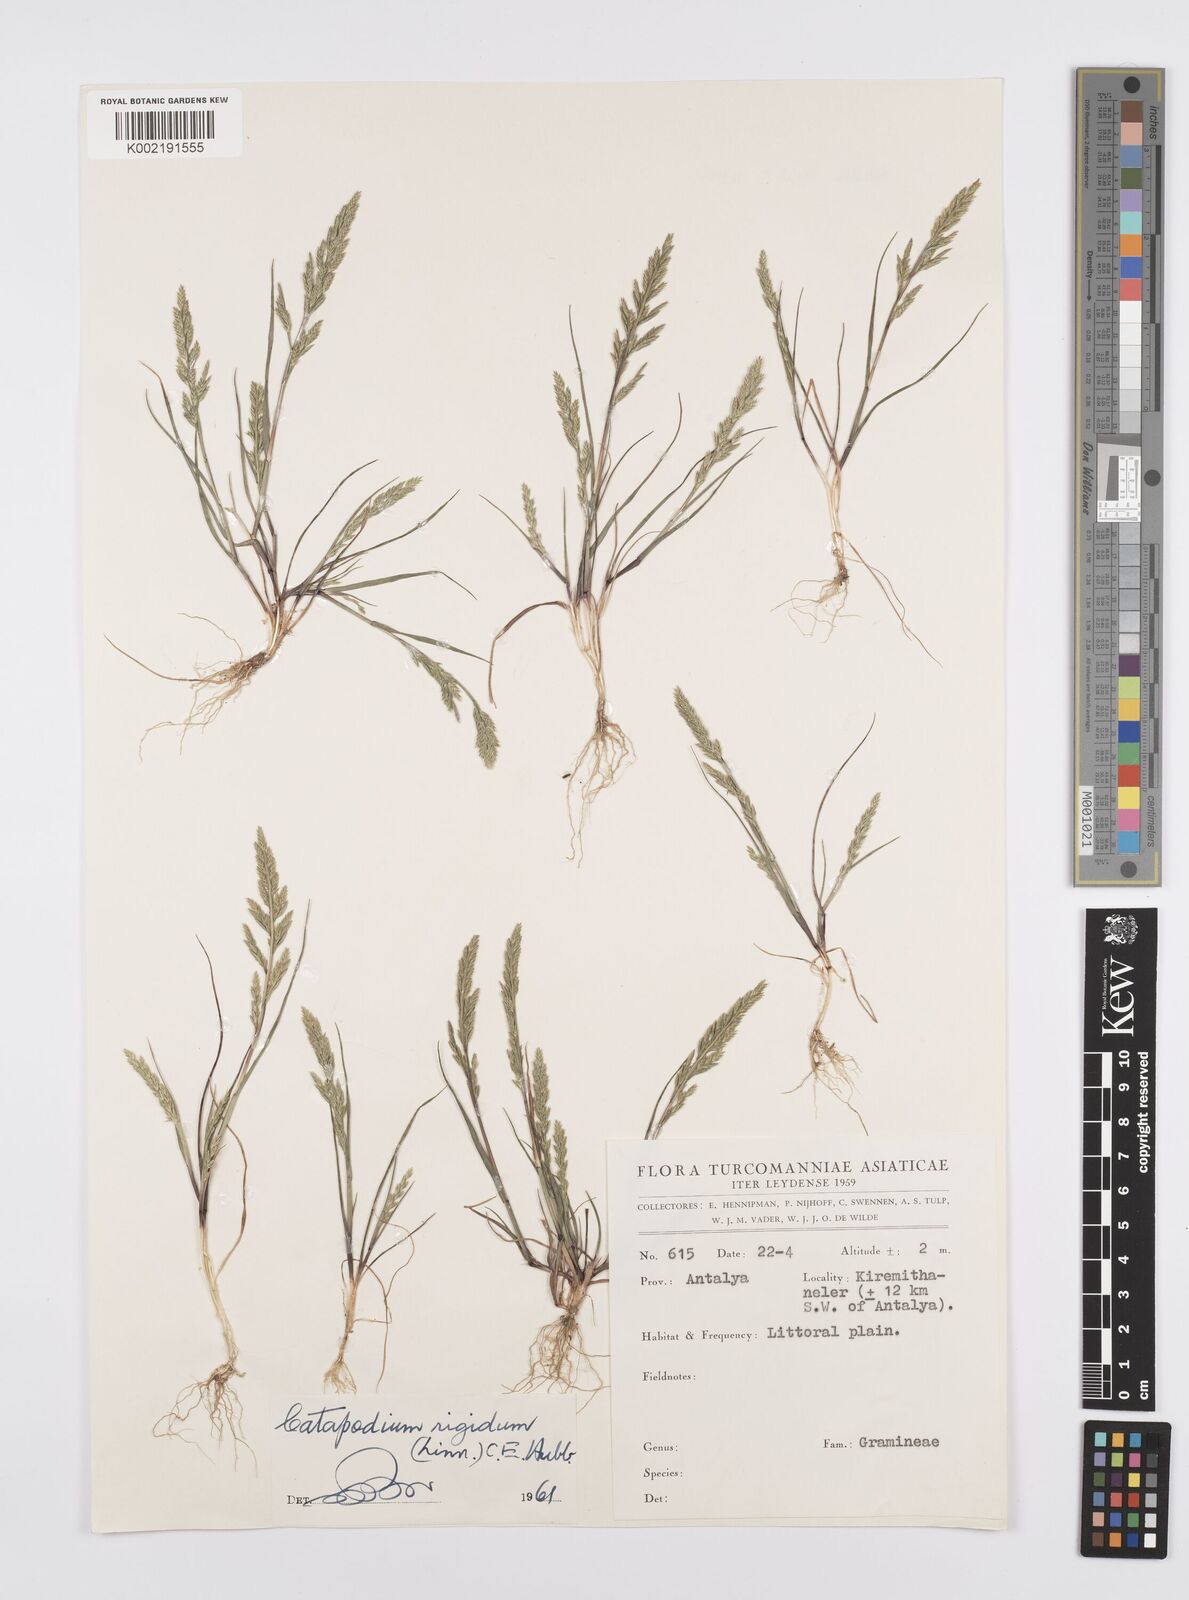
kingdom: Plantae
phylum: Tracheophyta
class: Liliopsida
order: Poales
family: Poaceae
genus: Catapodium
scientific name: Catapodium rigidum
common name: Fern-grass
